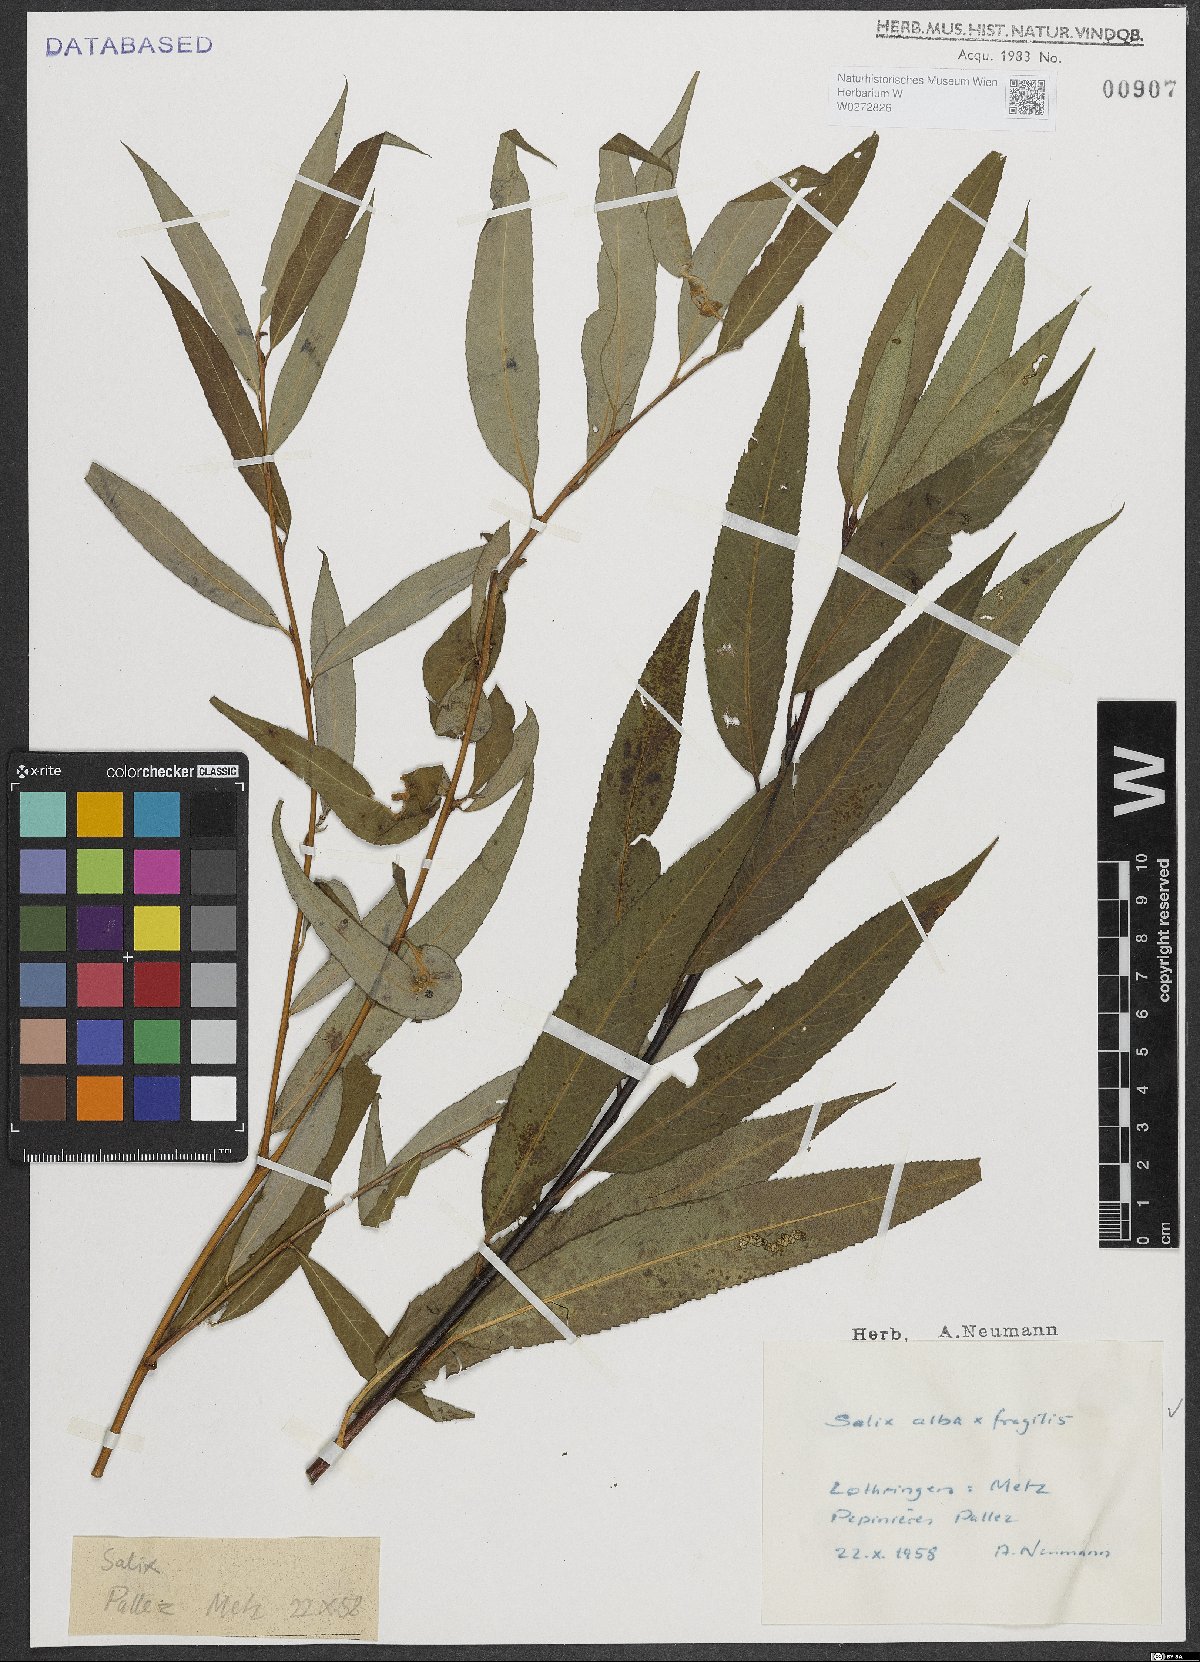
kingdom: Plantae
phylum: Tracheophyta
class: Magnoliopsida
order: Malpighiales
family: Salicaceae
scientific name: Salicaceae
